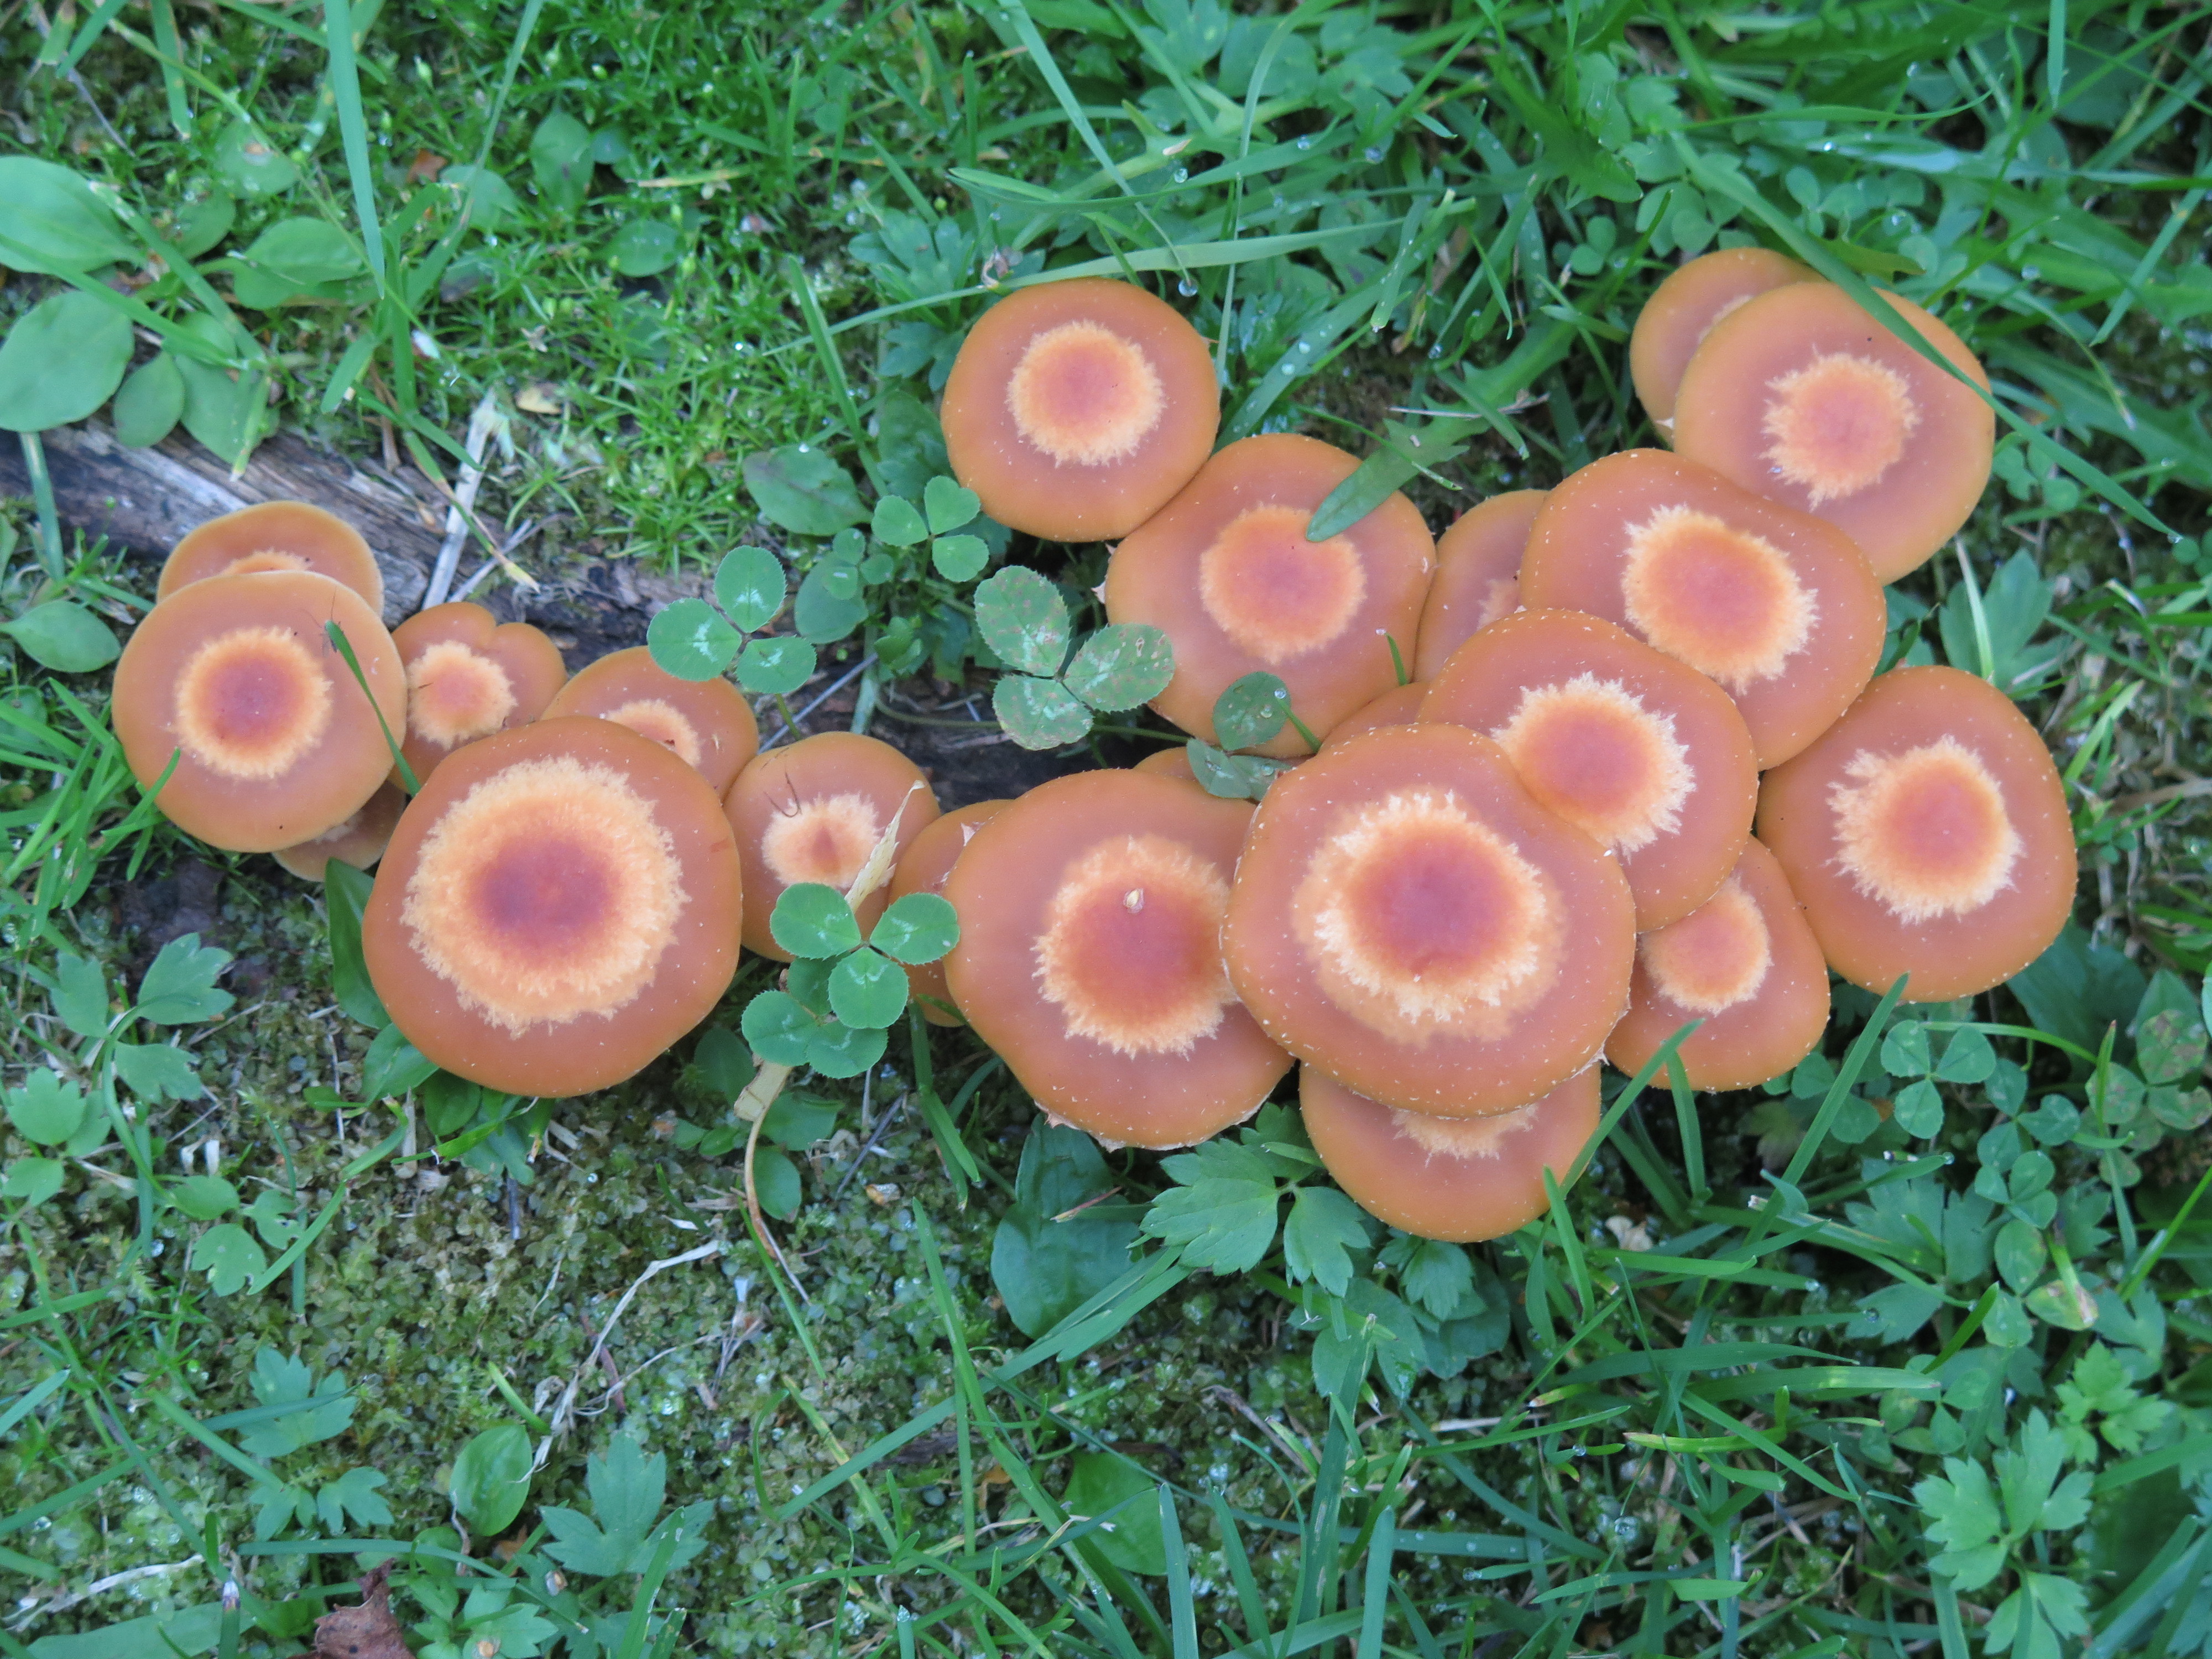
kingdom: Fungi
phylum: Basidiomycota
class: Agaricomycetes
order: Agaricales
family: Strophariaceae
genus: Kuehneromyces
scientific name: Kuehneromyces mutabilis
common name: Sheathed woodtuft
